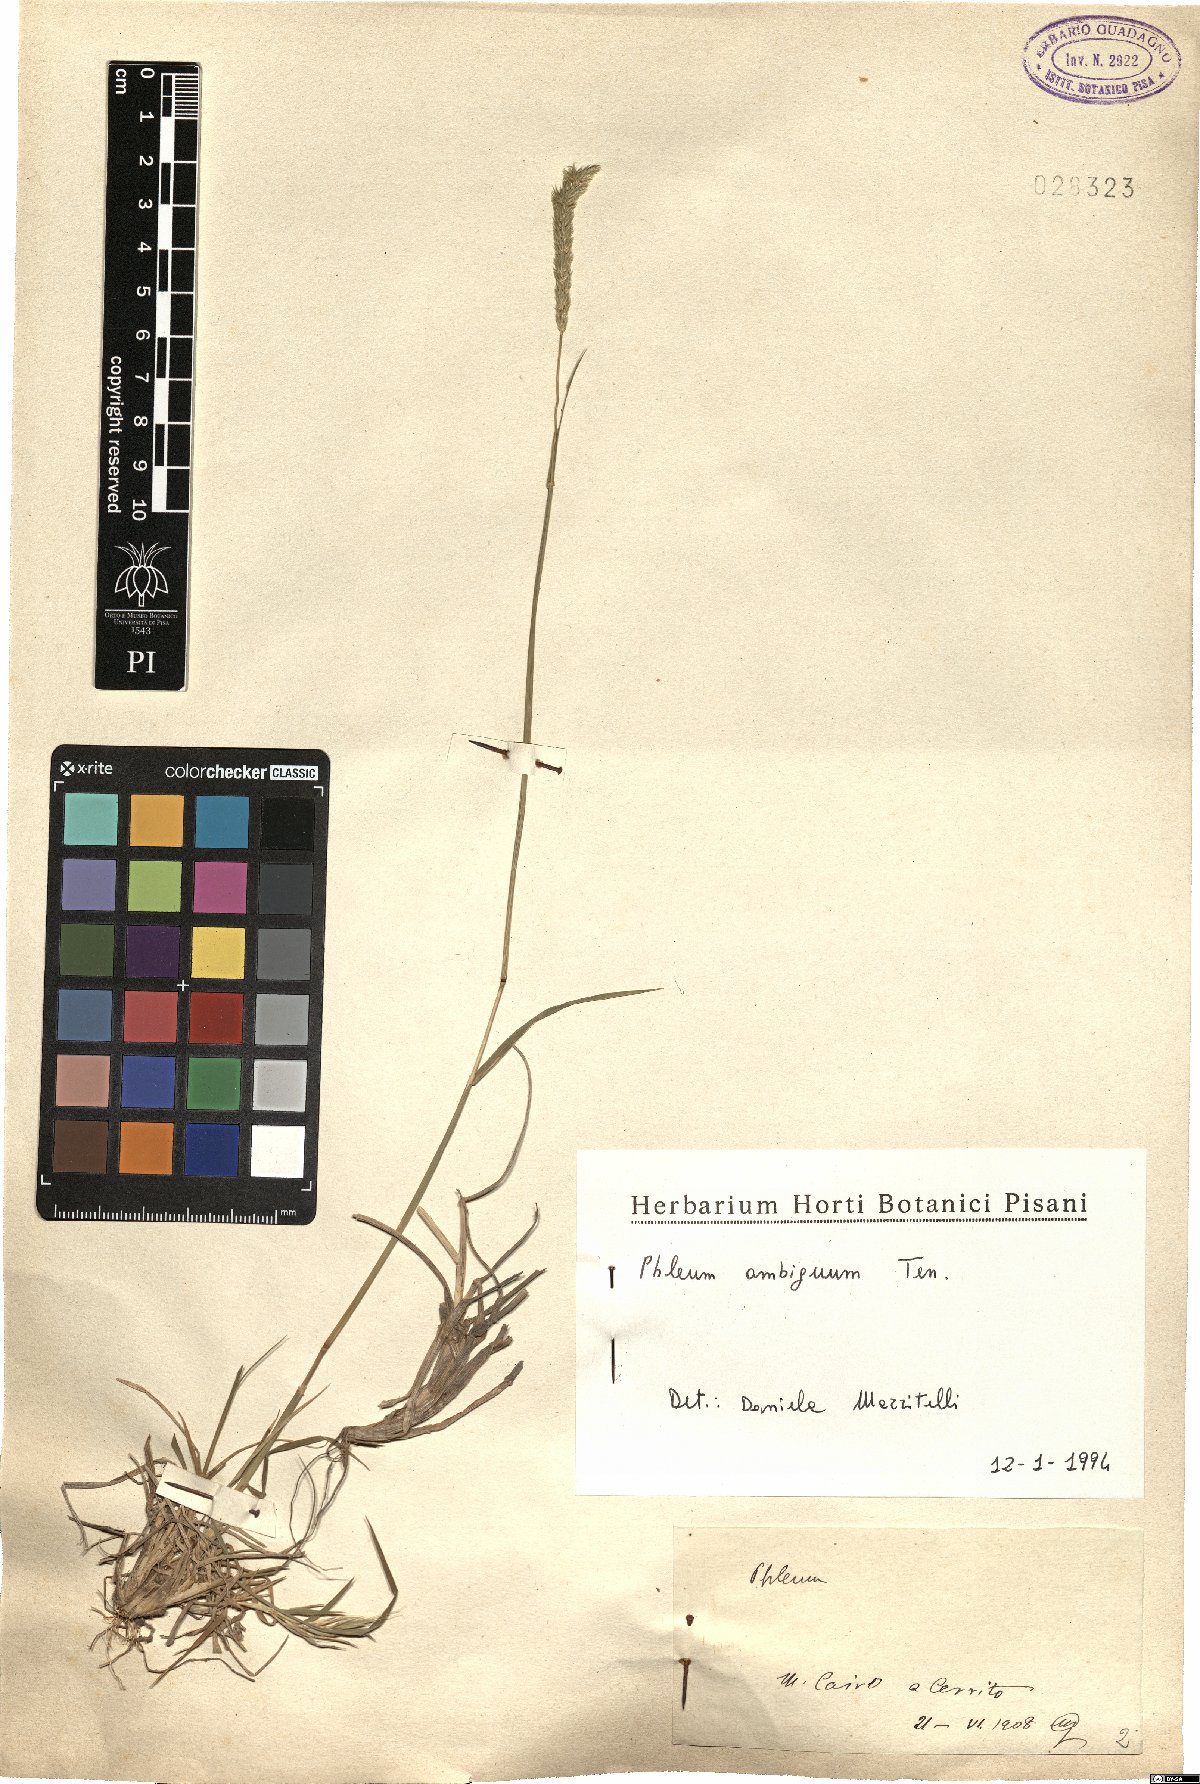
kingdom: Plantae
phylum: Tracheophyta
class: Liliopsida
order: Poales
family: Poaceae
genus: Phleum
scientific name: Phleum hirsutum
